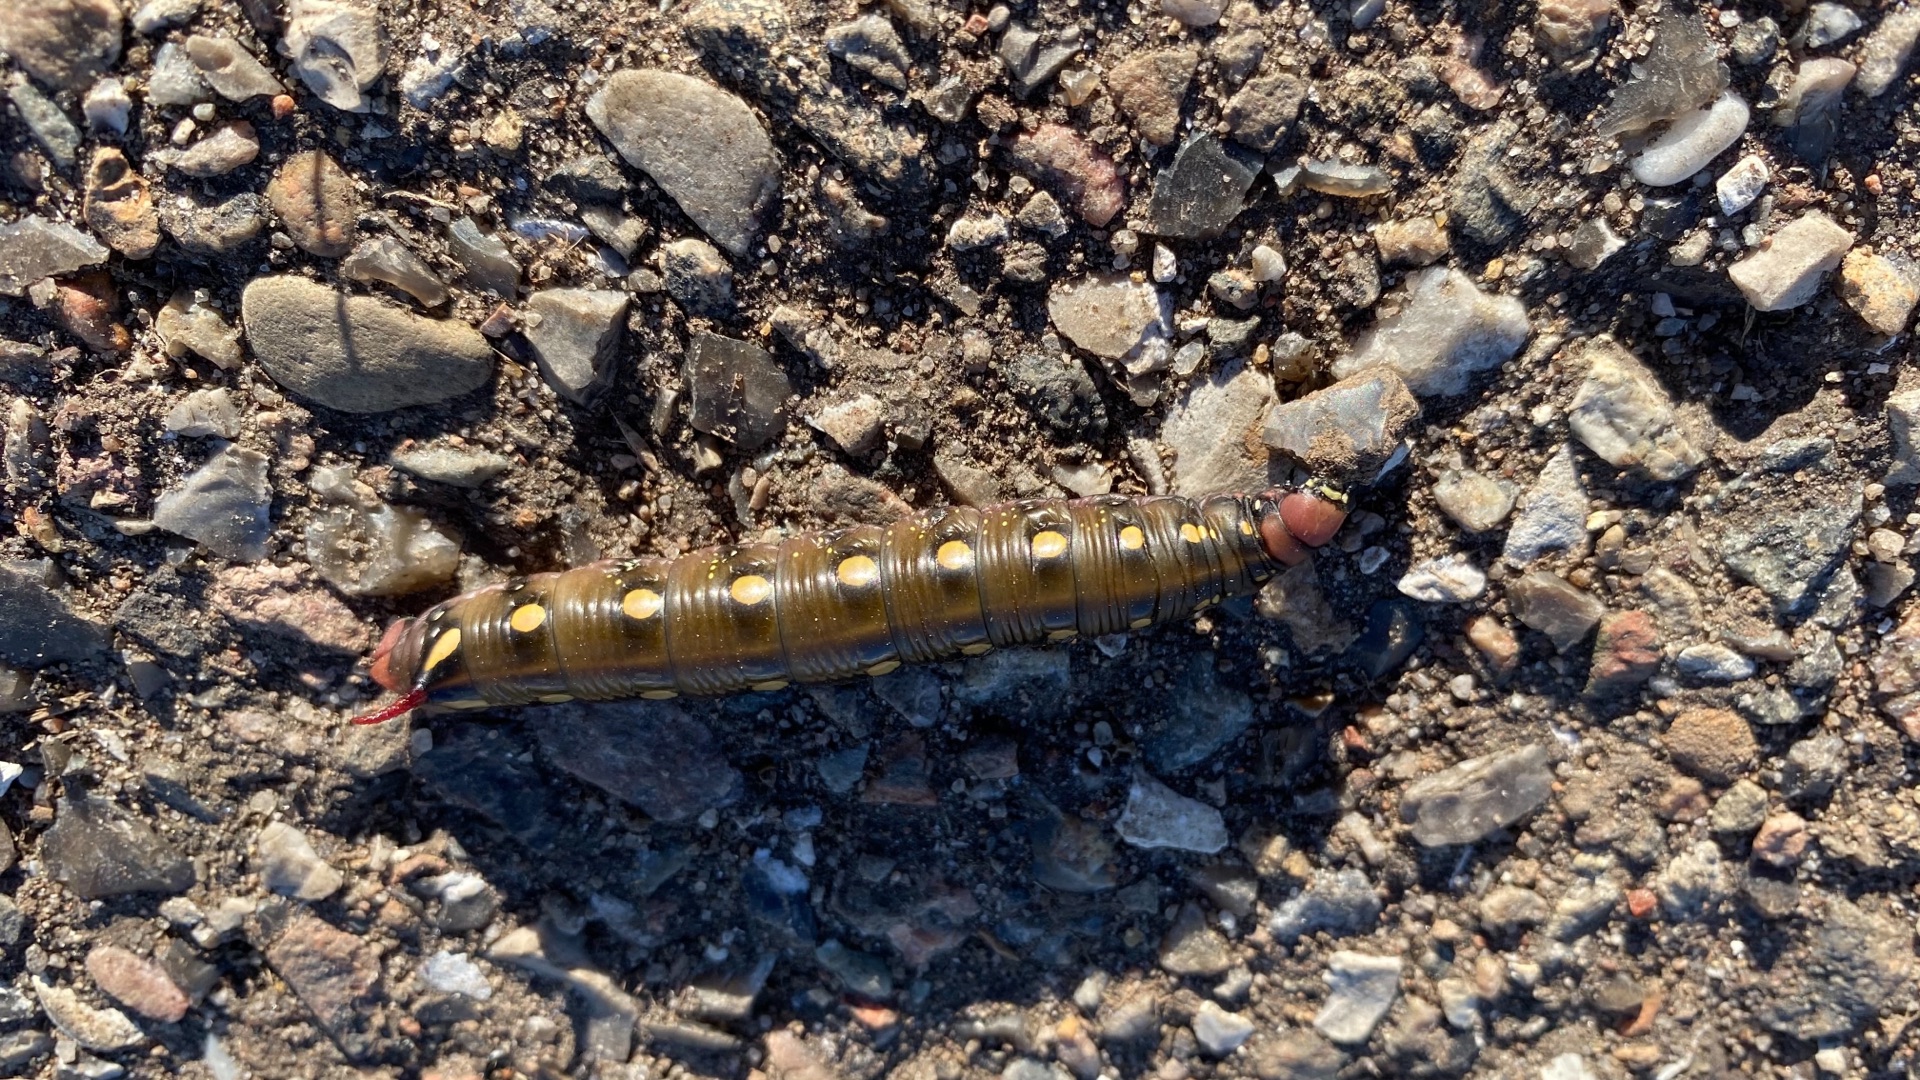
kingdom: Animalia
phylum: Arthropoda
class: Insecta
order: Lepidoptera
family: Sphingidae
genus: Hyles
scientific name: Hyles gallii
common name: Snerresværmer
